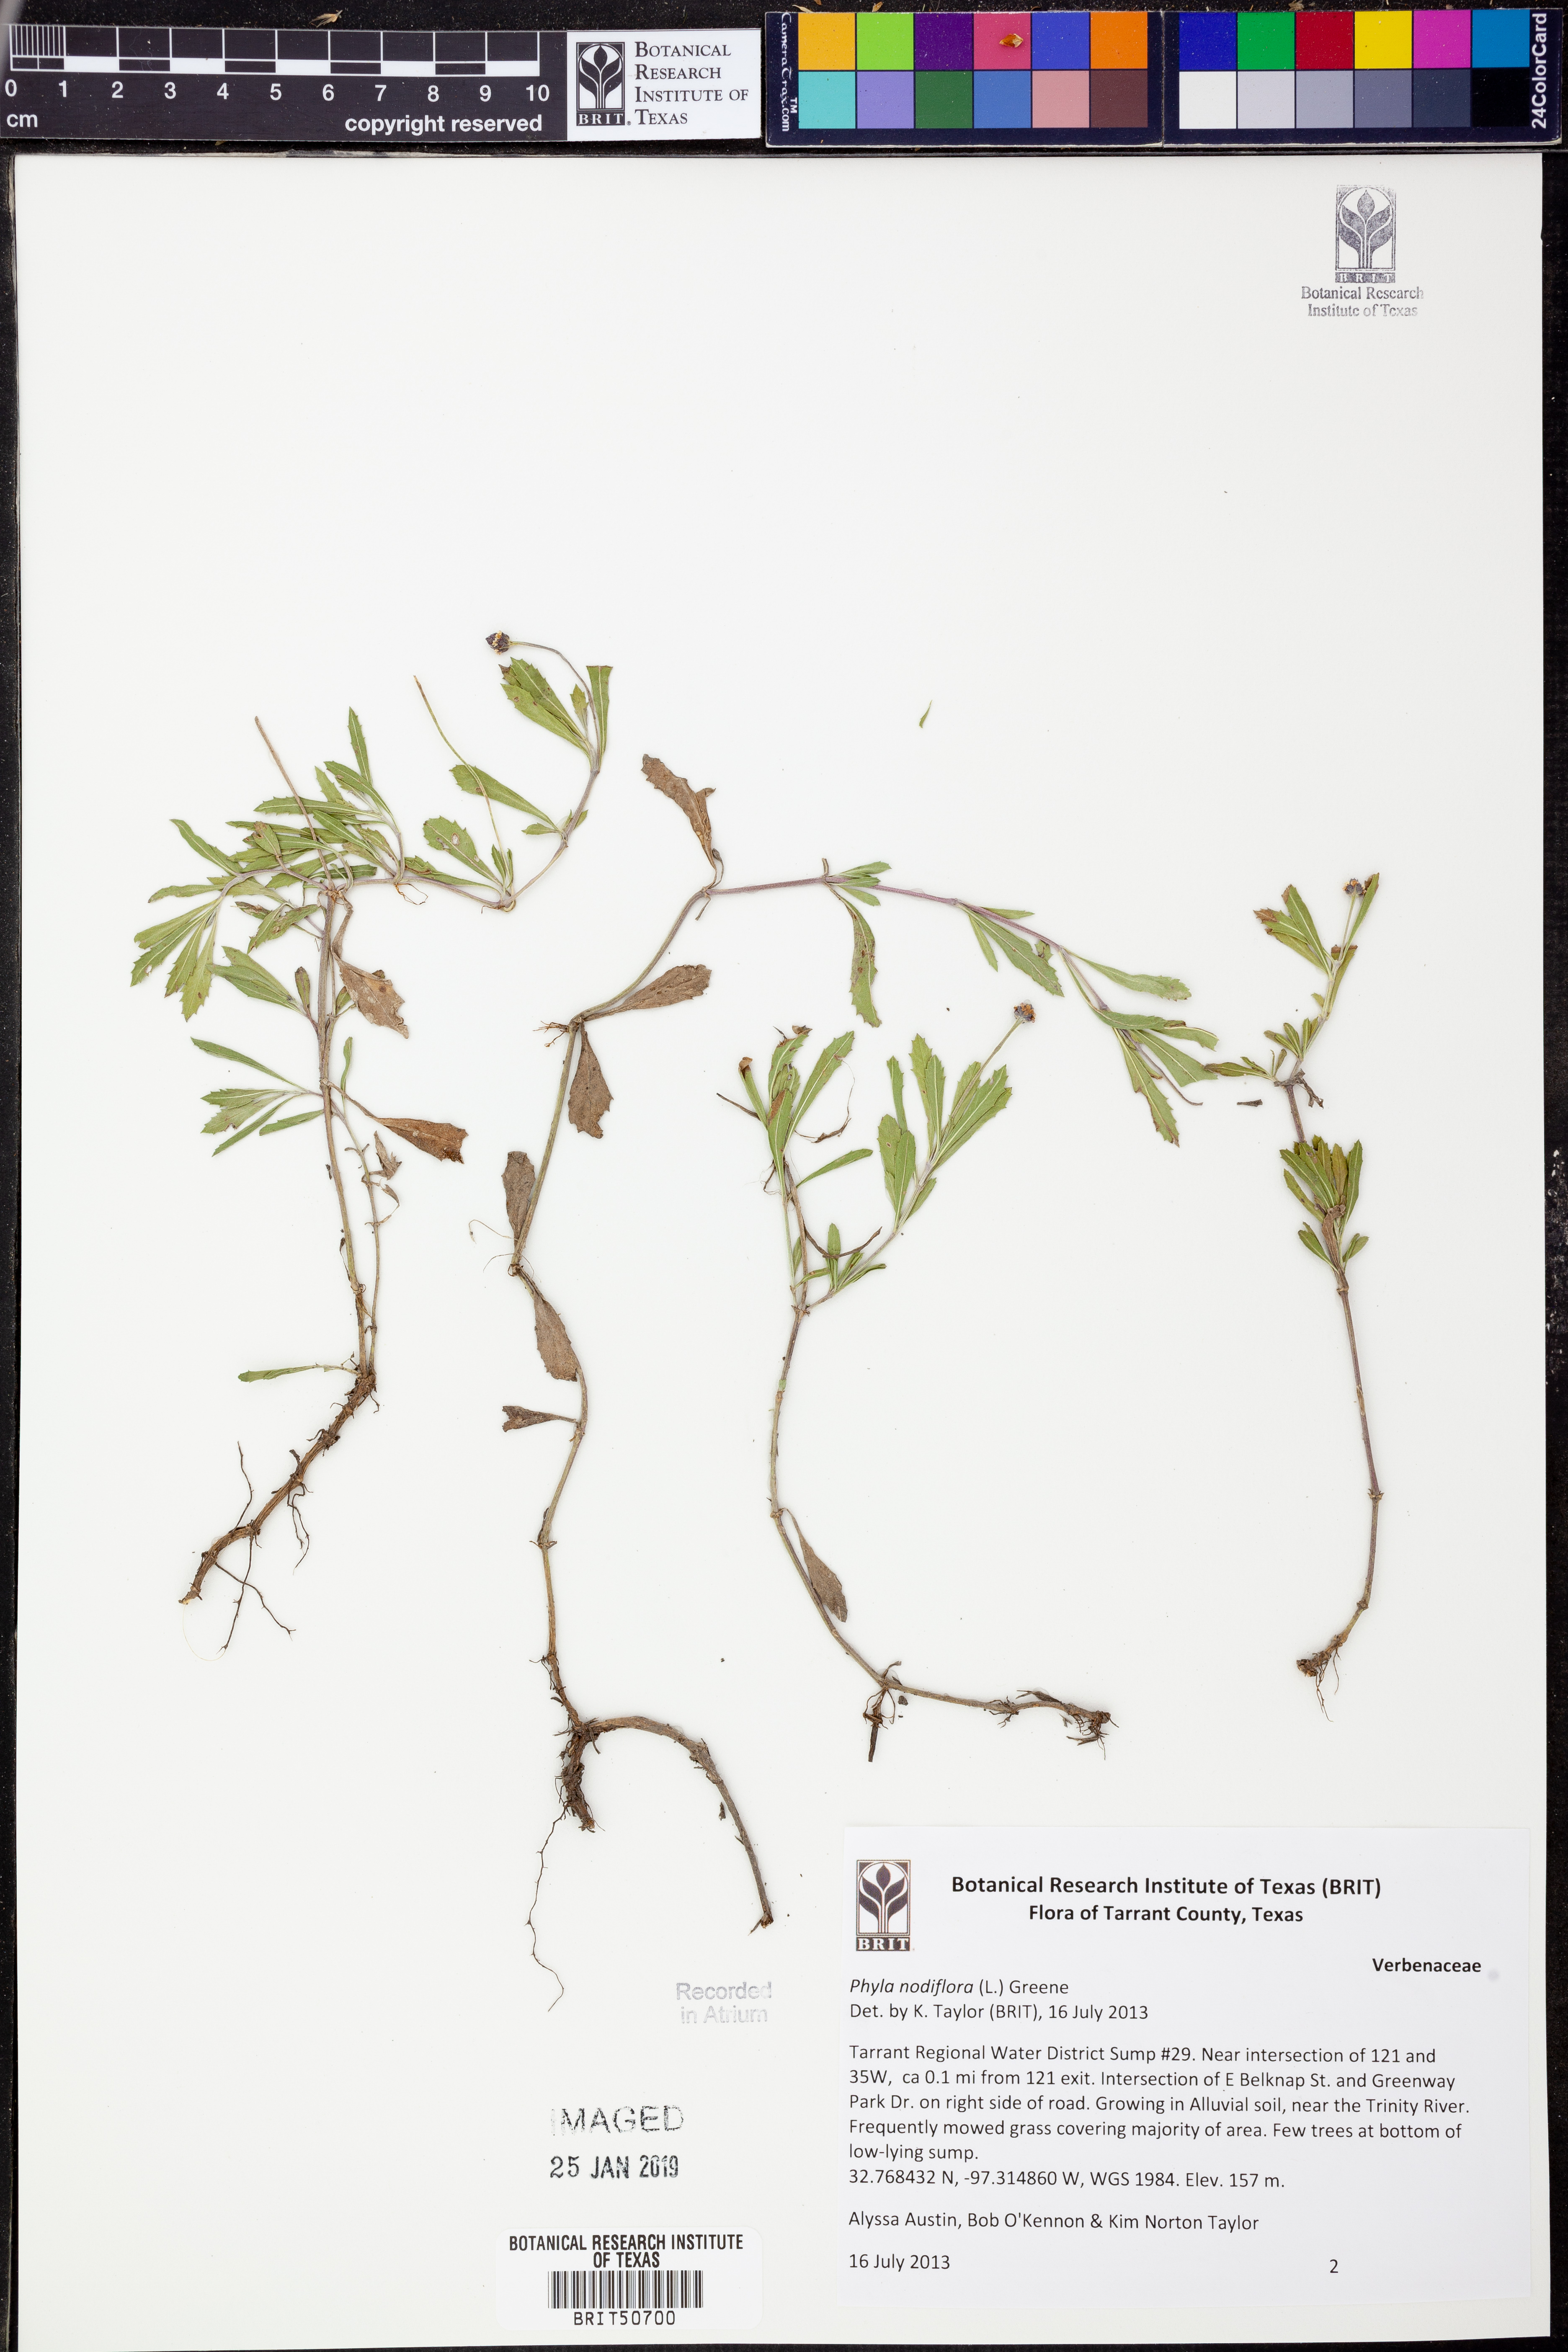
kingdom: Plantae
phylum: Tracheophyta
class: Magnoliopsida
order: Lamiales
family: Verbenaceae
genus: Phyla
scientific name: Phyla nodiflora
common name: Frogfruit
